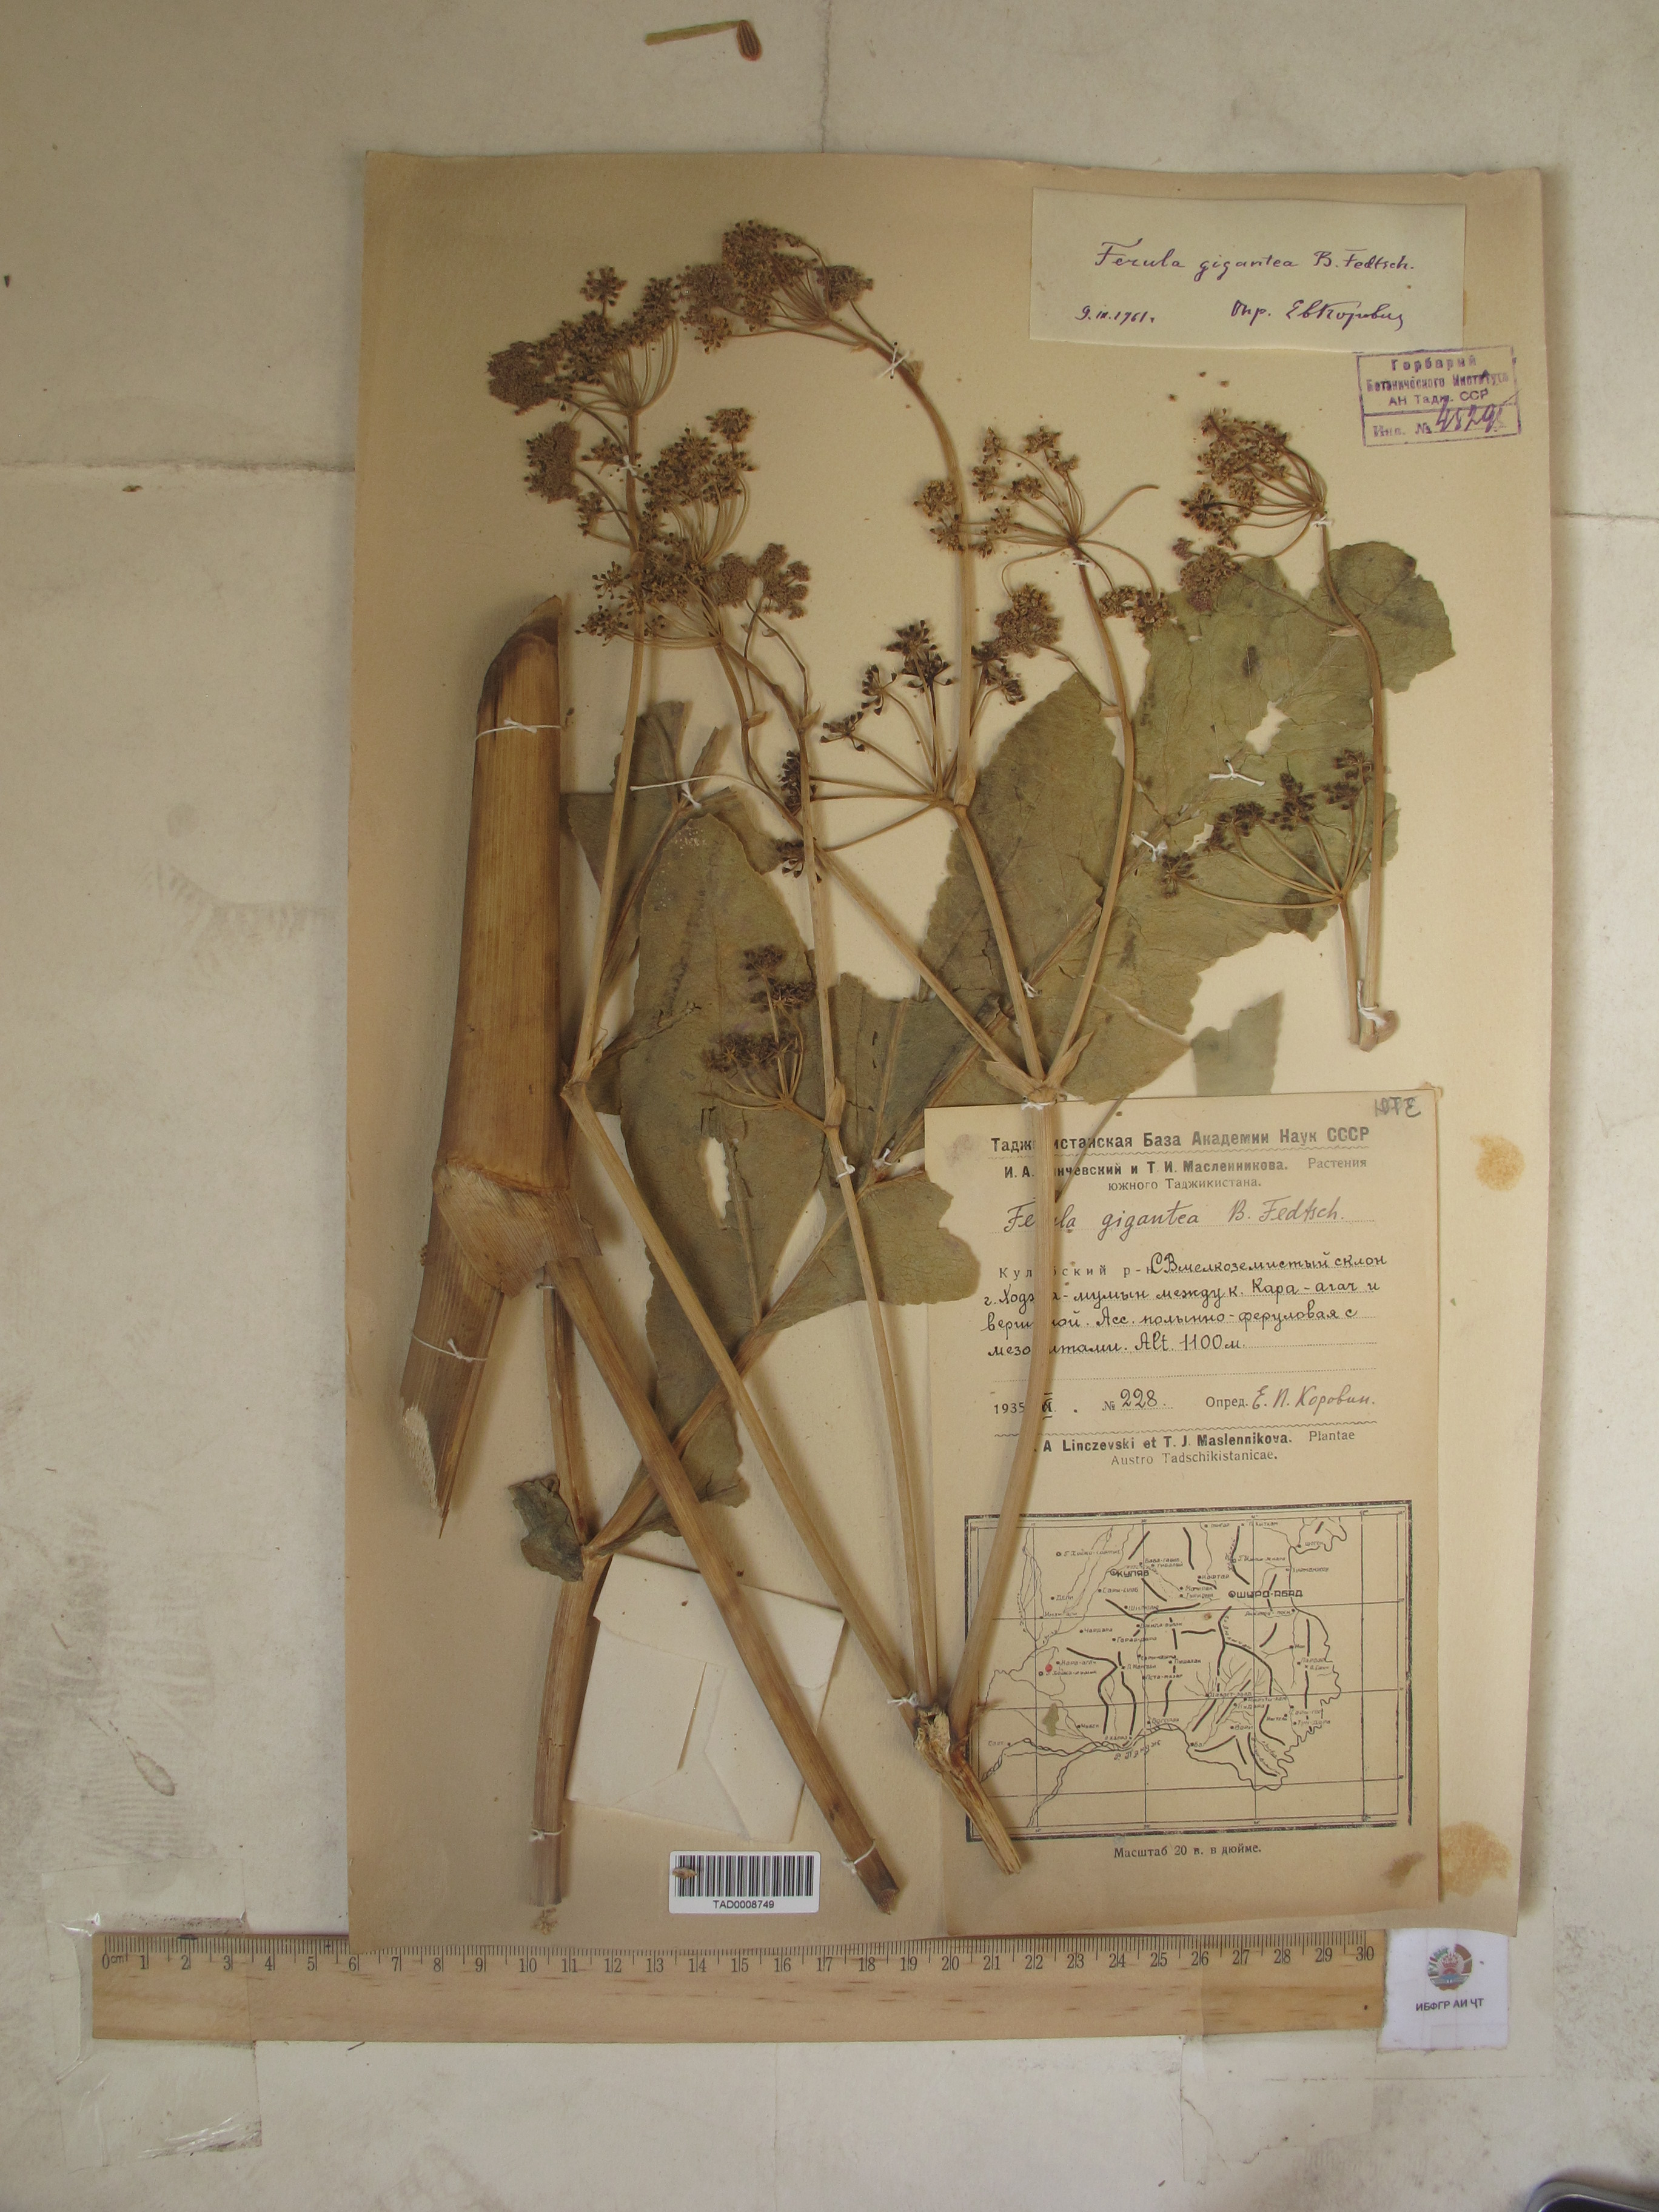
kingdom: Plantae
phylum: Tracheophyta
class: Magnoliopsida
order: Apiales
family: Apiaceae
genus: Ferula
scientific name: Ferula gigantea
